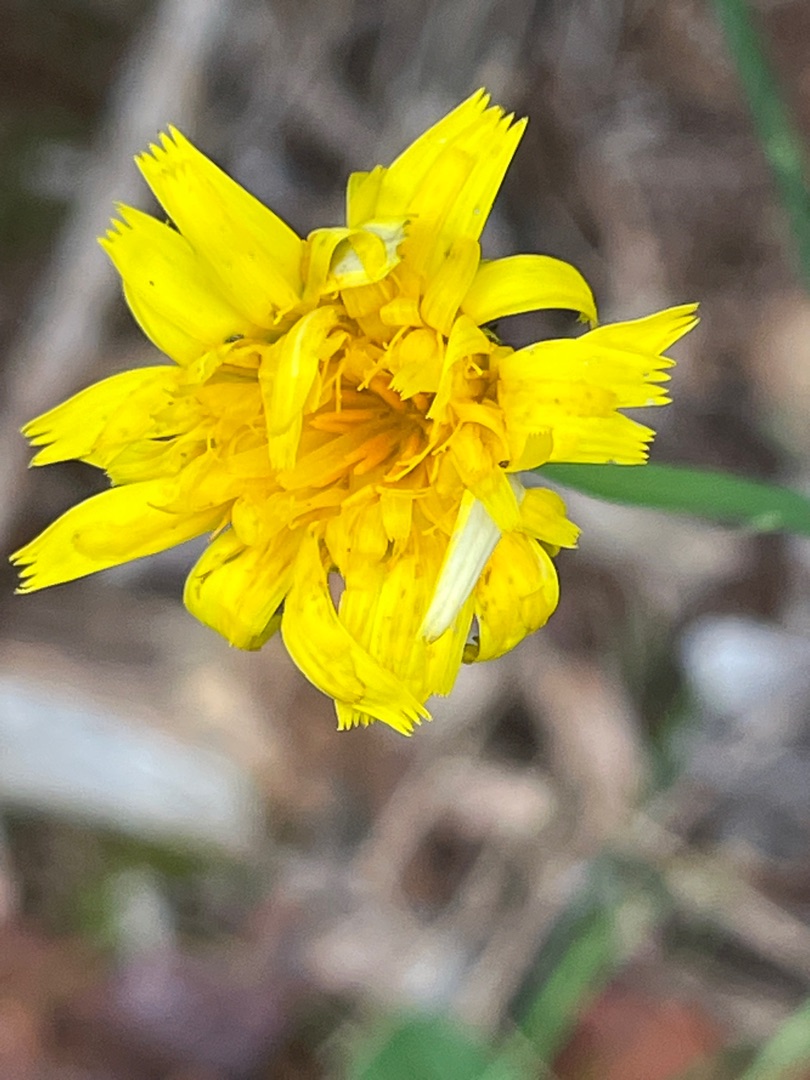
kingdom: Plantae
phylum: Tracheophyta
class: Magnoliopsida
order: Asterales
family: Asteraceae
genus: Hypochaeris
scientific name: Hypochaeris radicata
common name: Almindelig kongepen
